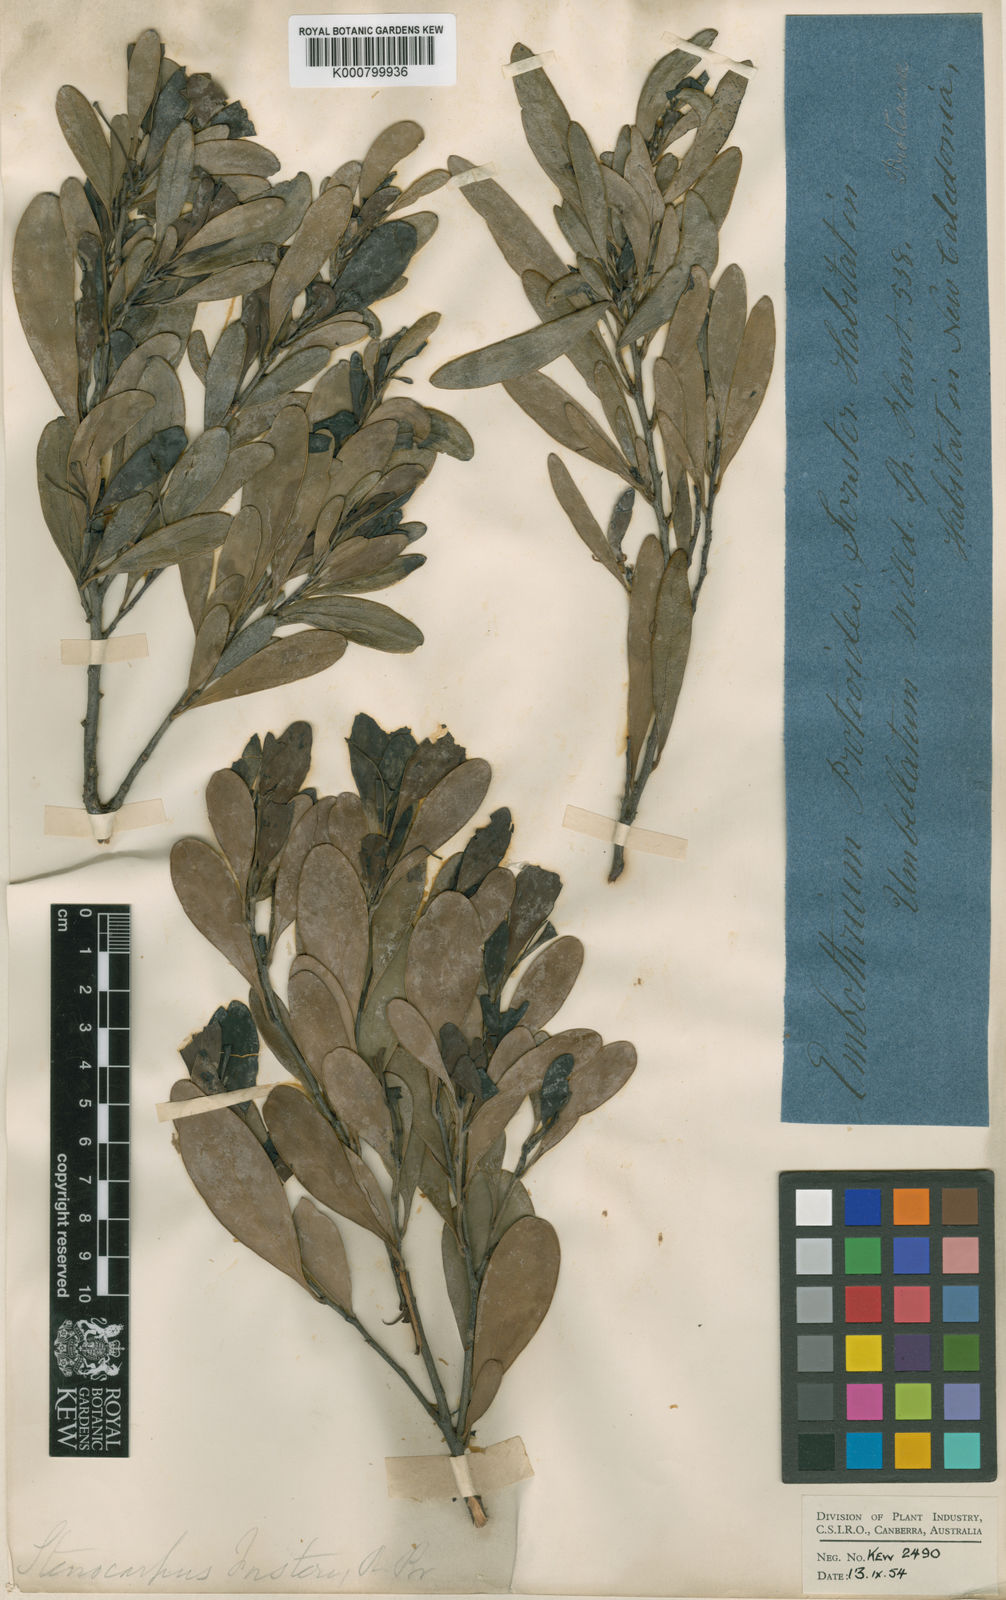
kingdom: Plantae
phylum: Tracheophyta
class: Magnoliopsida
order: Proteales
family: Proteaceae
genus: Stenocarpus
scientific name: Stenocarpus umbellifer
